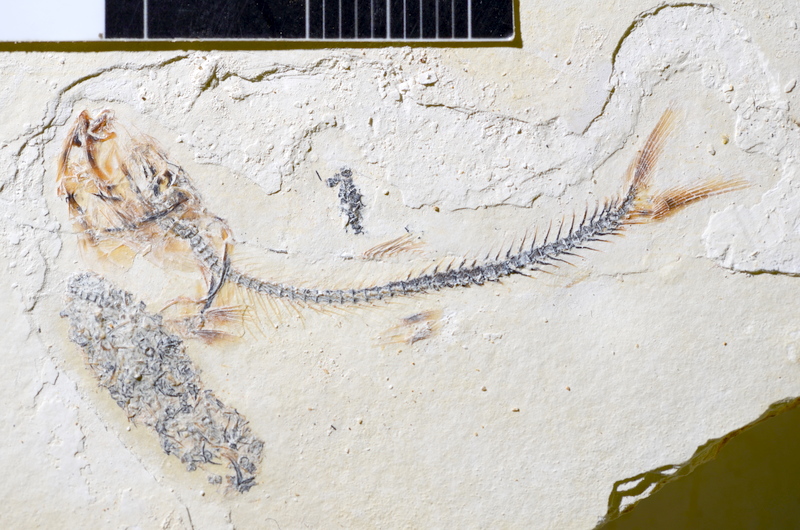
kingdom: Animalia
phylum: Chordata
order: Salmoniformes
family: Orthogonikleithridae
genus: Orthogonikleithrus
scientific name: Orthogonikleithrus hoelli
